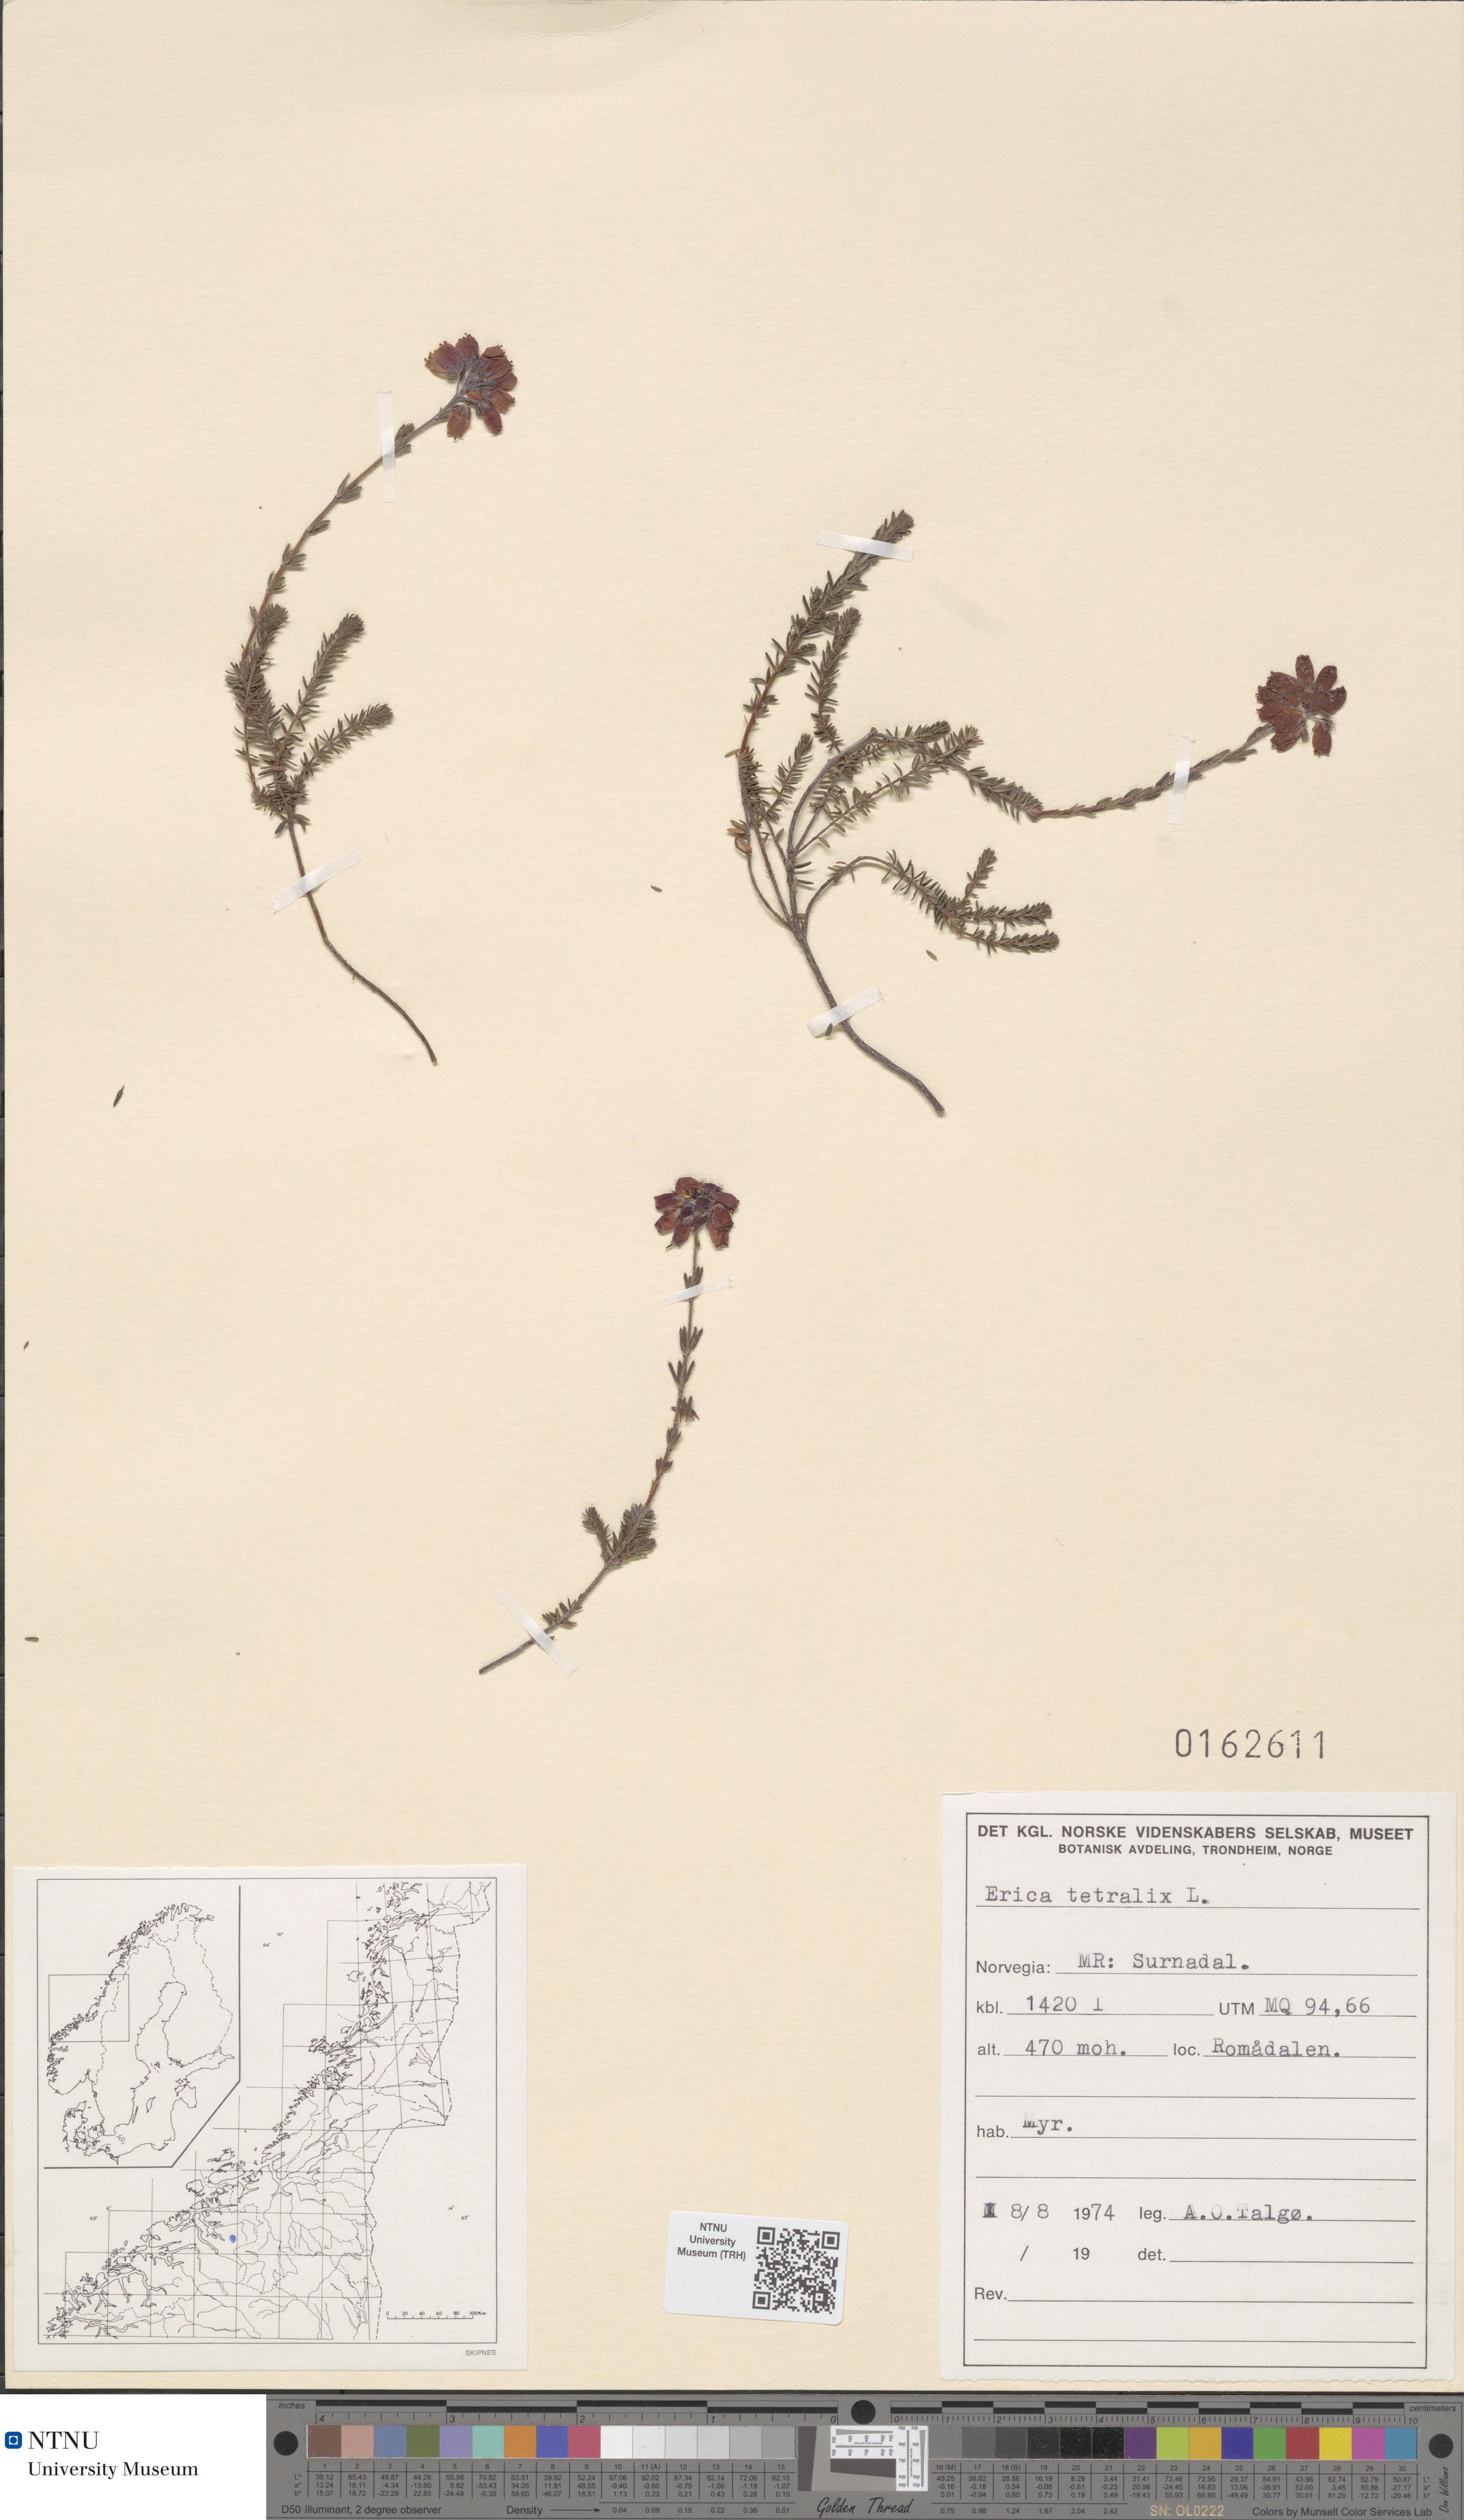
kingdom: Plantae
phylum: Tracheophyta
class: Magnoliopsida
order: Ericales
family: Ericaceae
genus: Erica
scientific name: Erica tetralix
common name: Cross-leaved heath
